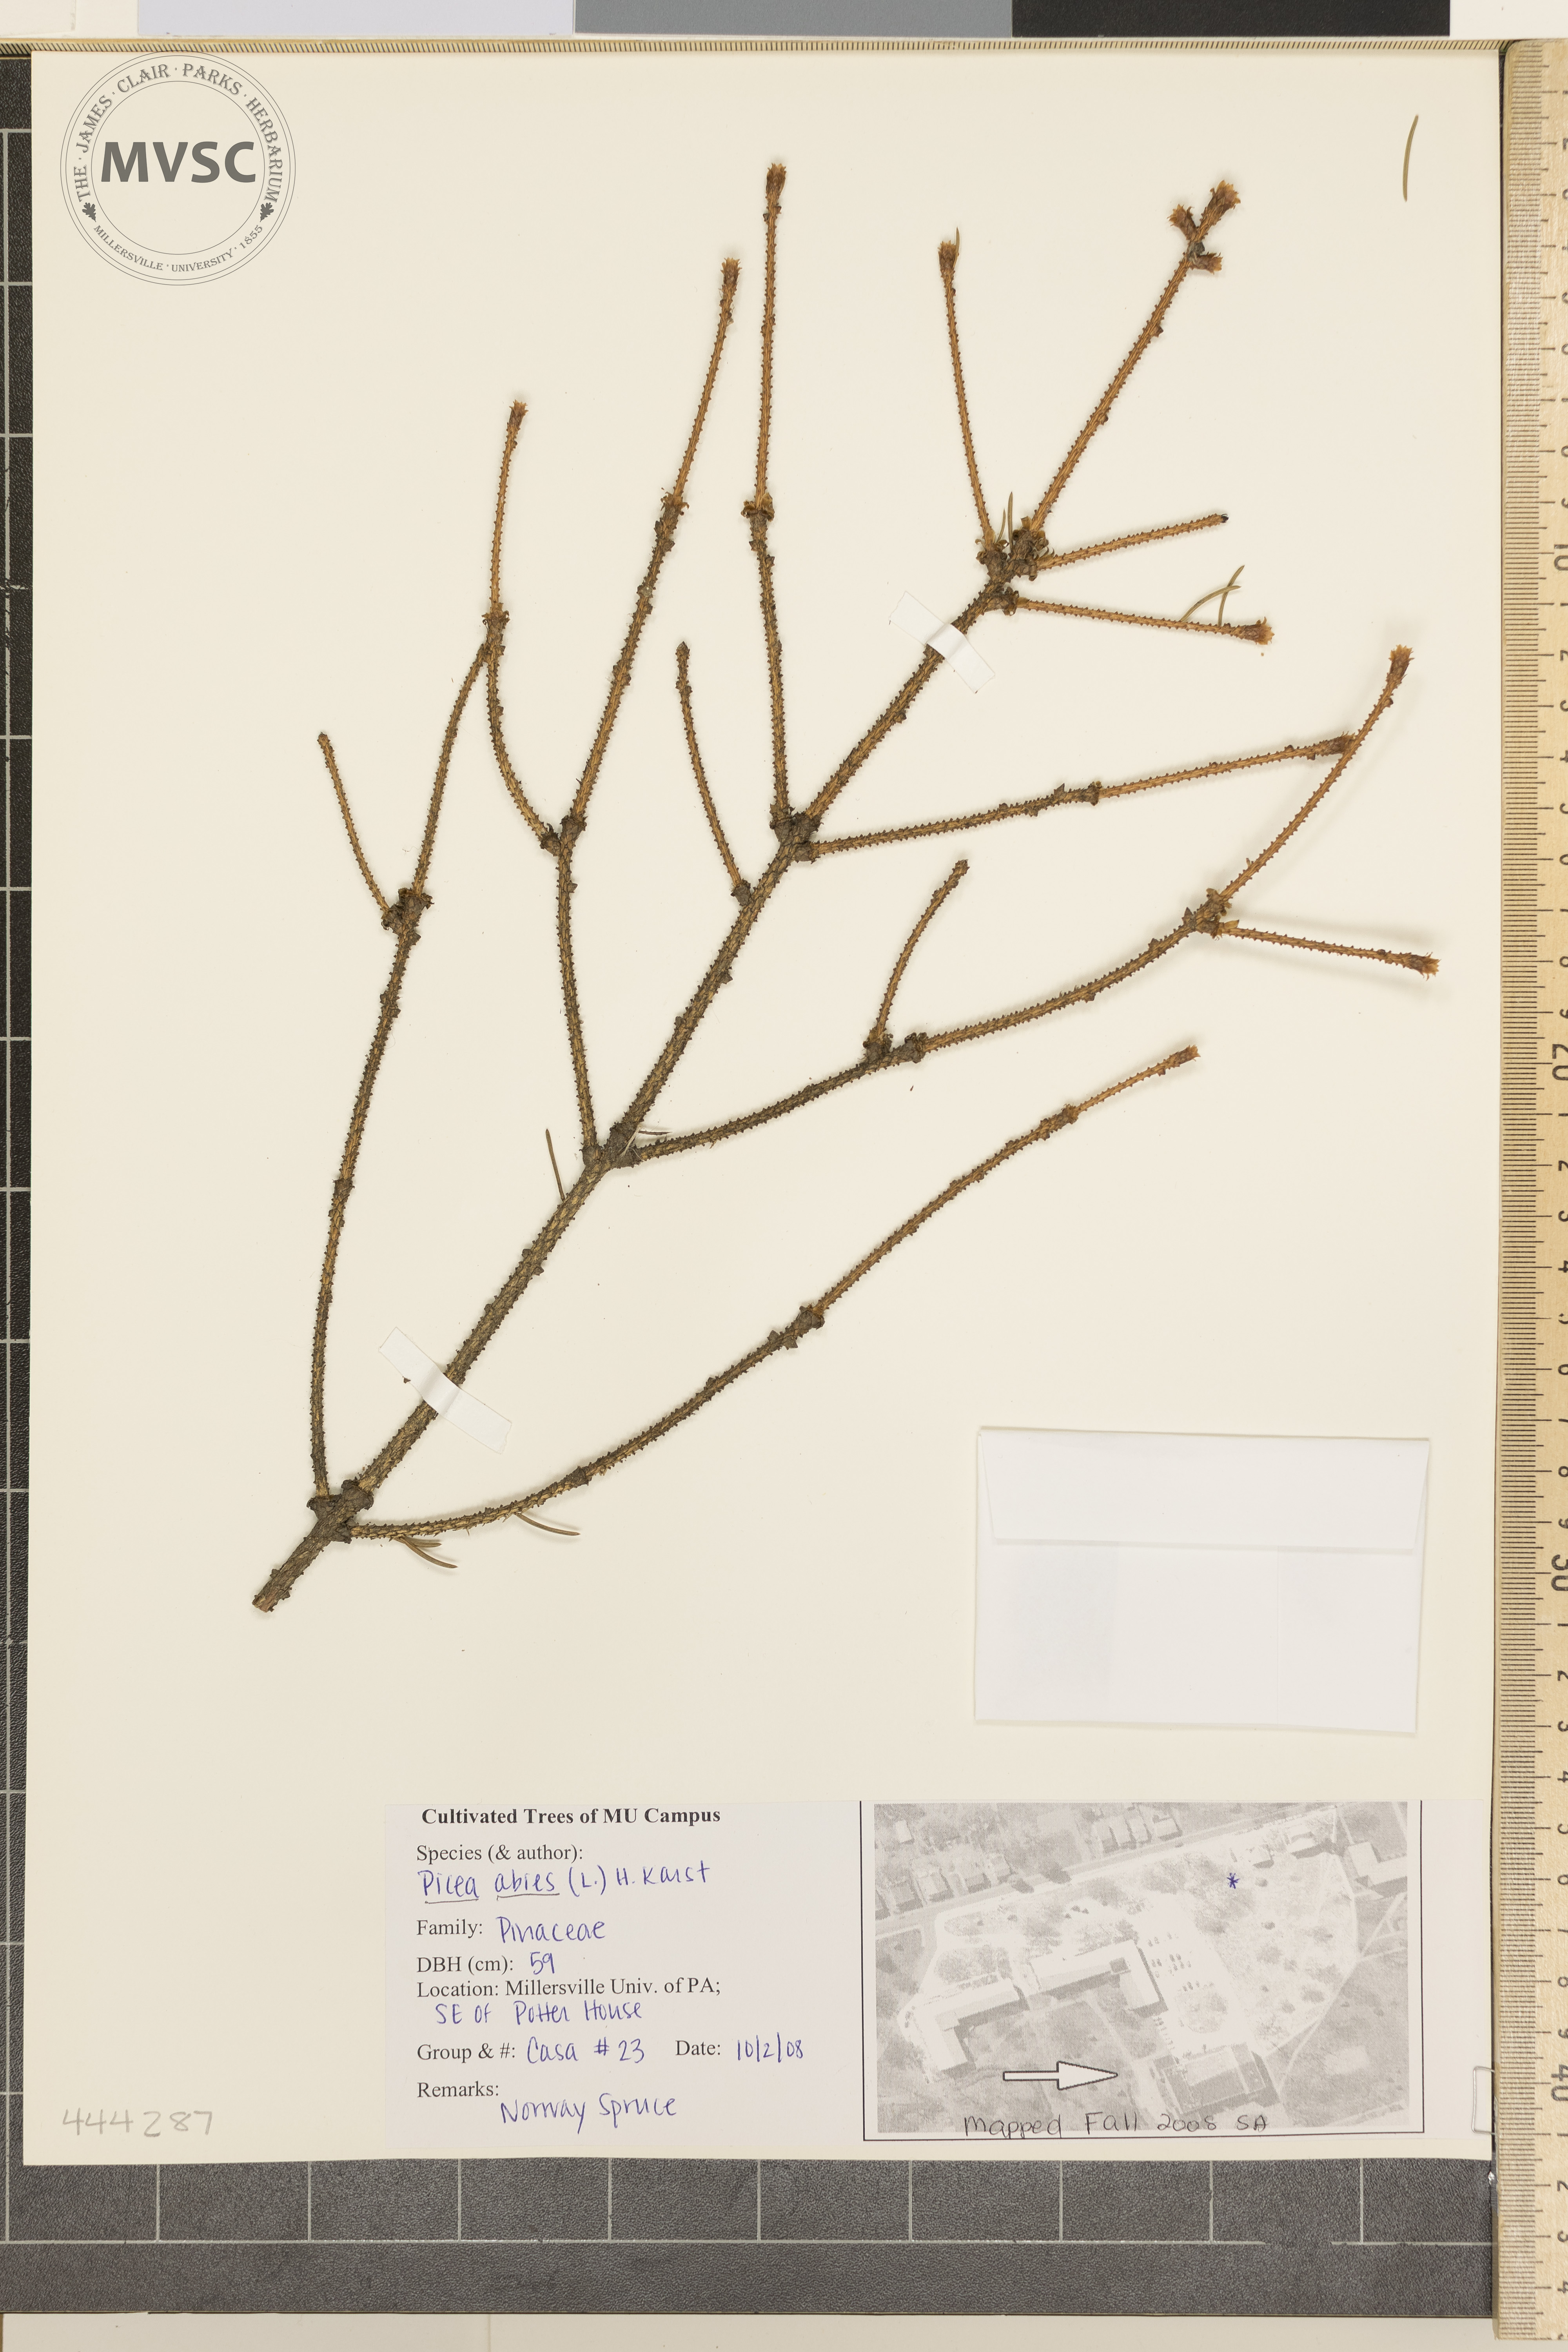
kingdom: Plantae
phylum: Tracheophyta
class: Pinopsida
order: Pinales
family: Pinaceae
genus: Picea
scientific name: Picea abies
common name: Norway Spruce
